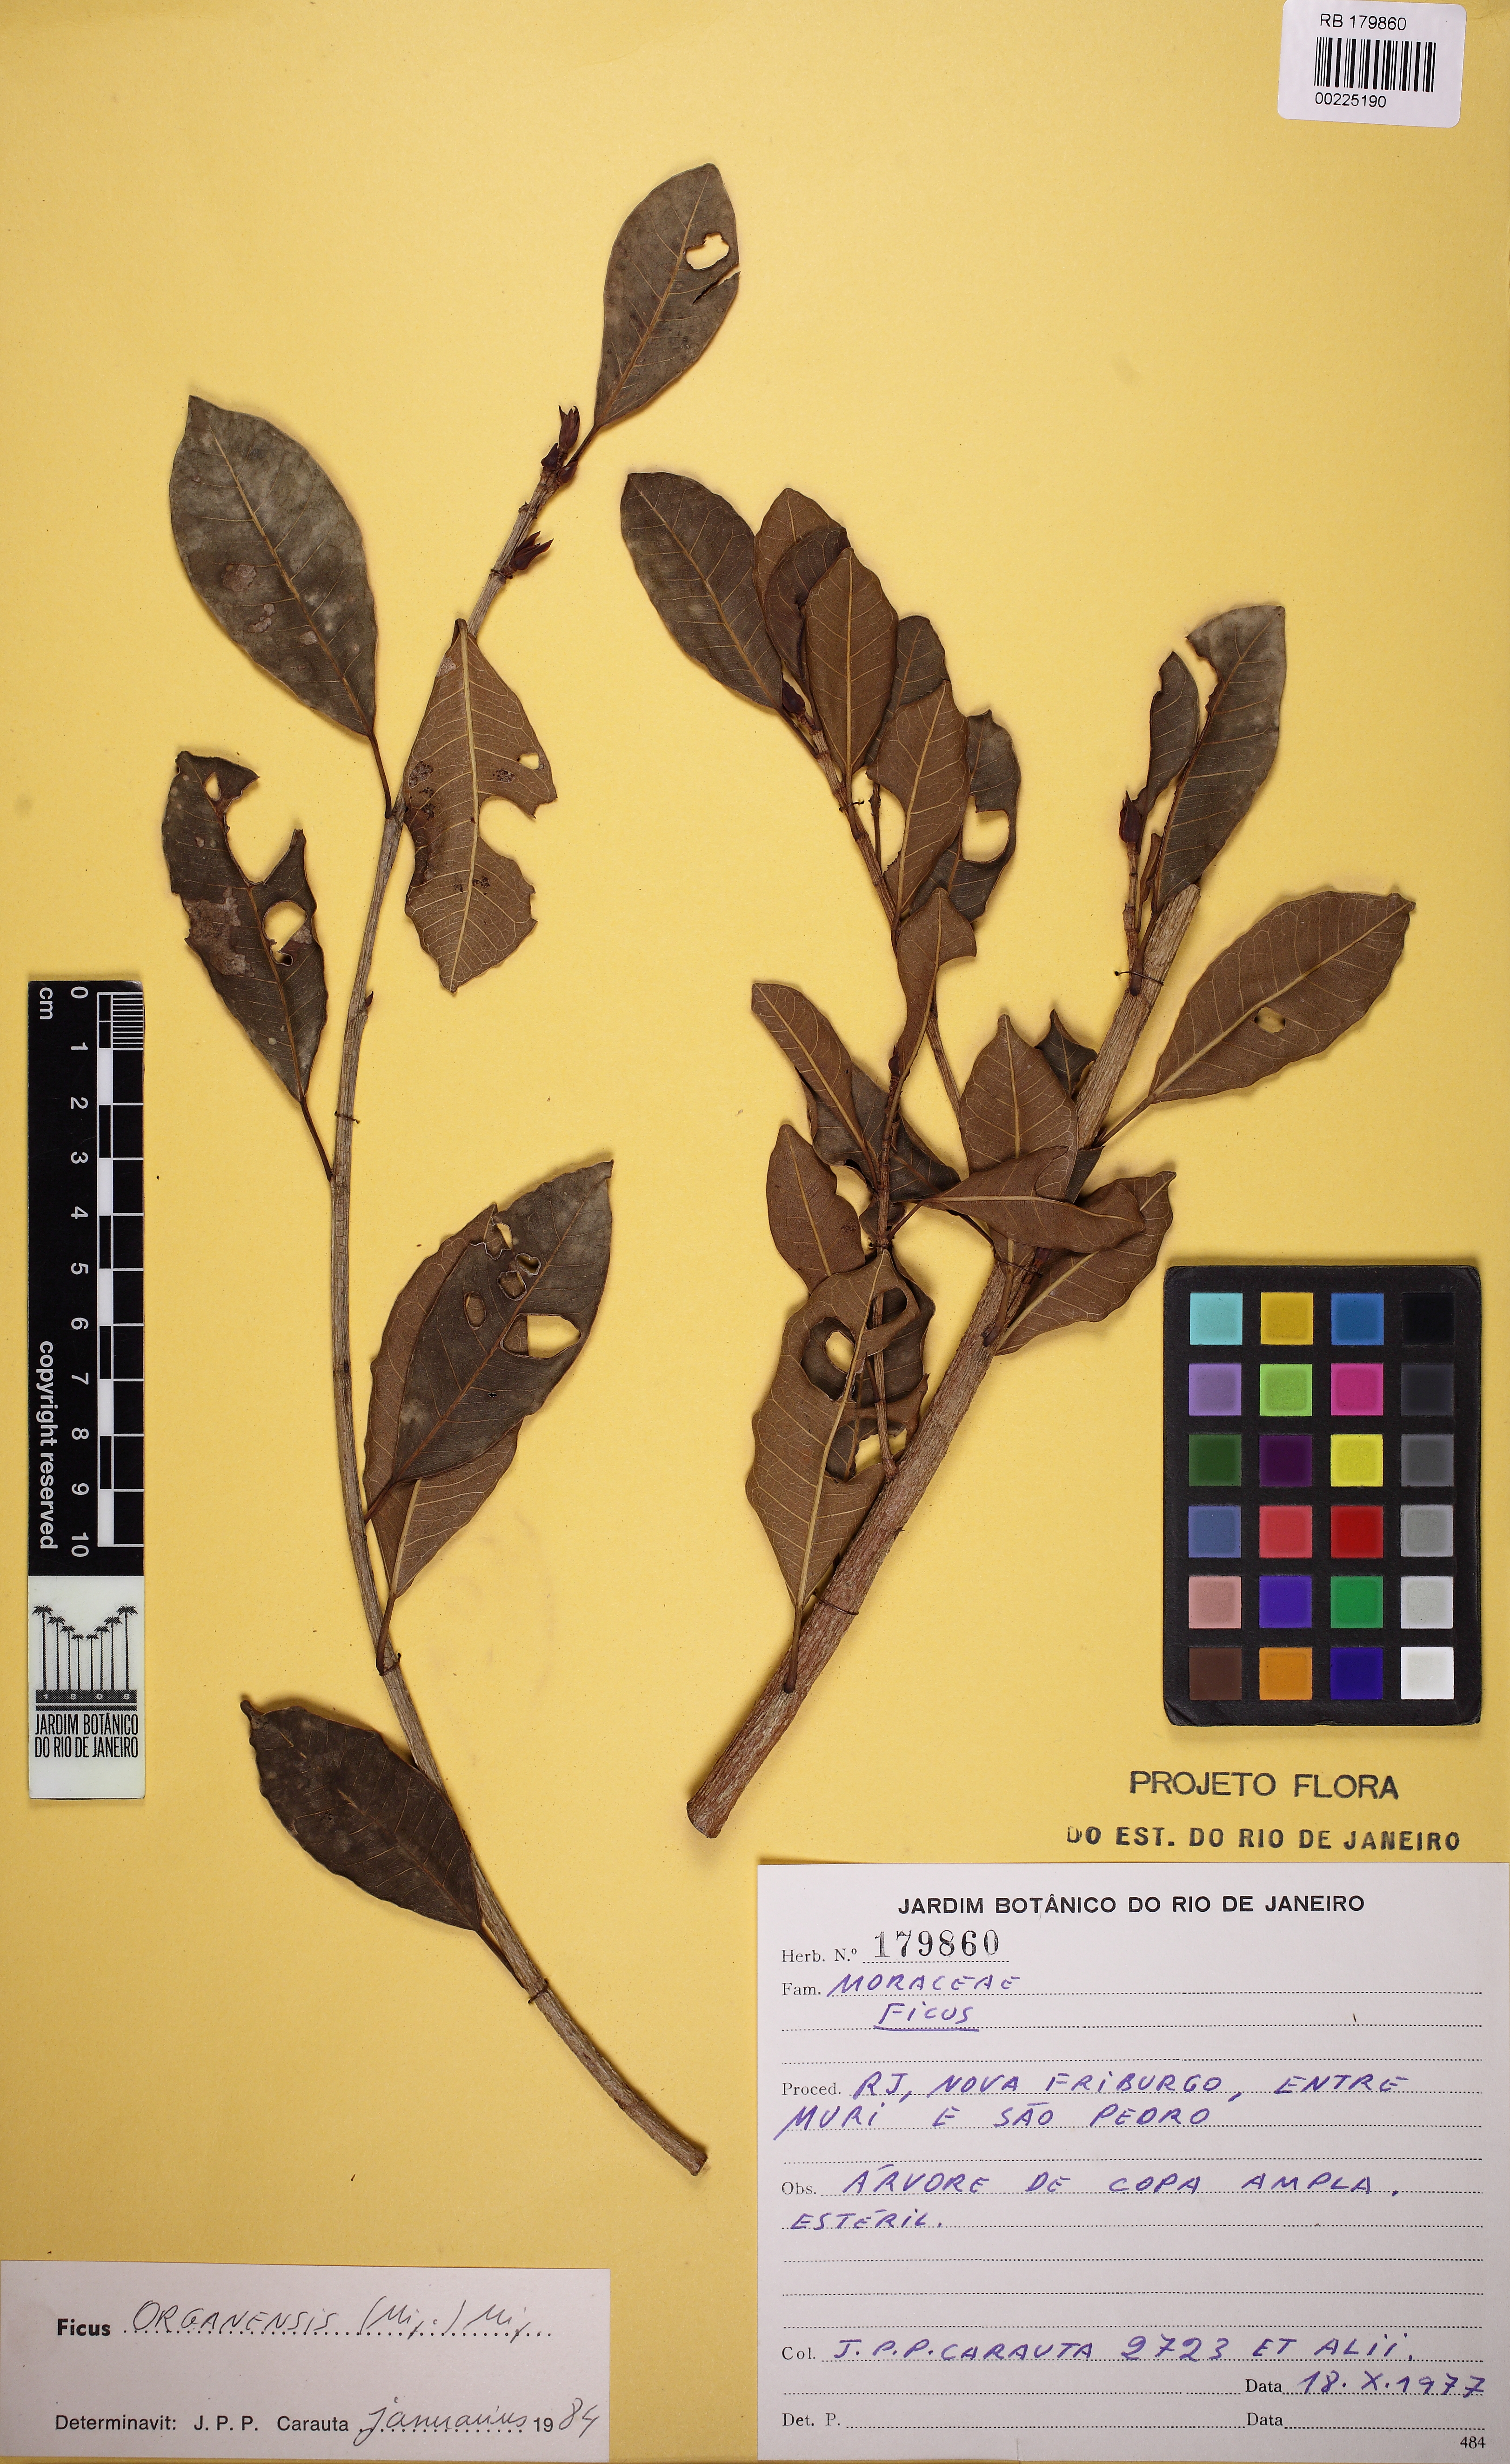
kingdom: Plantae
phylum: Tracheophyta
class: Magnoliopsida
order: Rosales
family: Moraceae
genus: Ficus
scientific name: Ficus organensis
